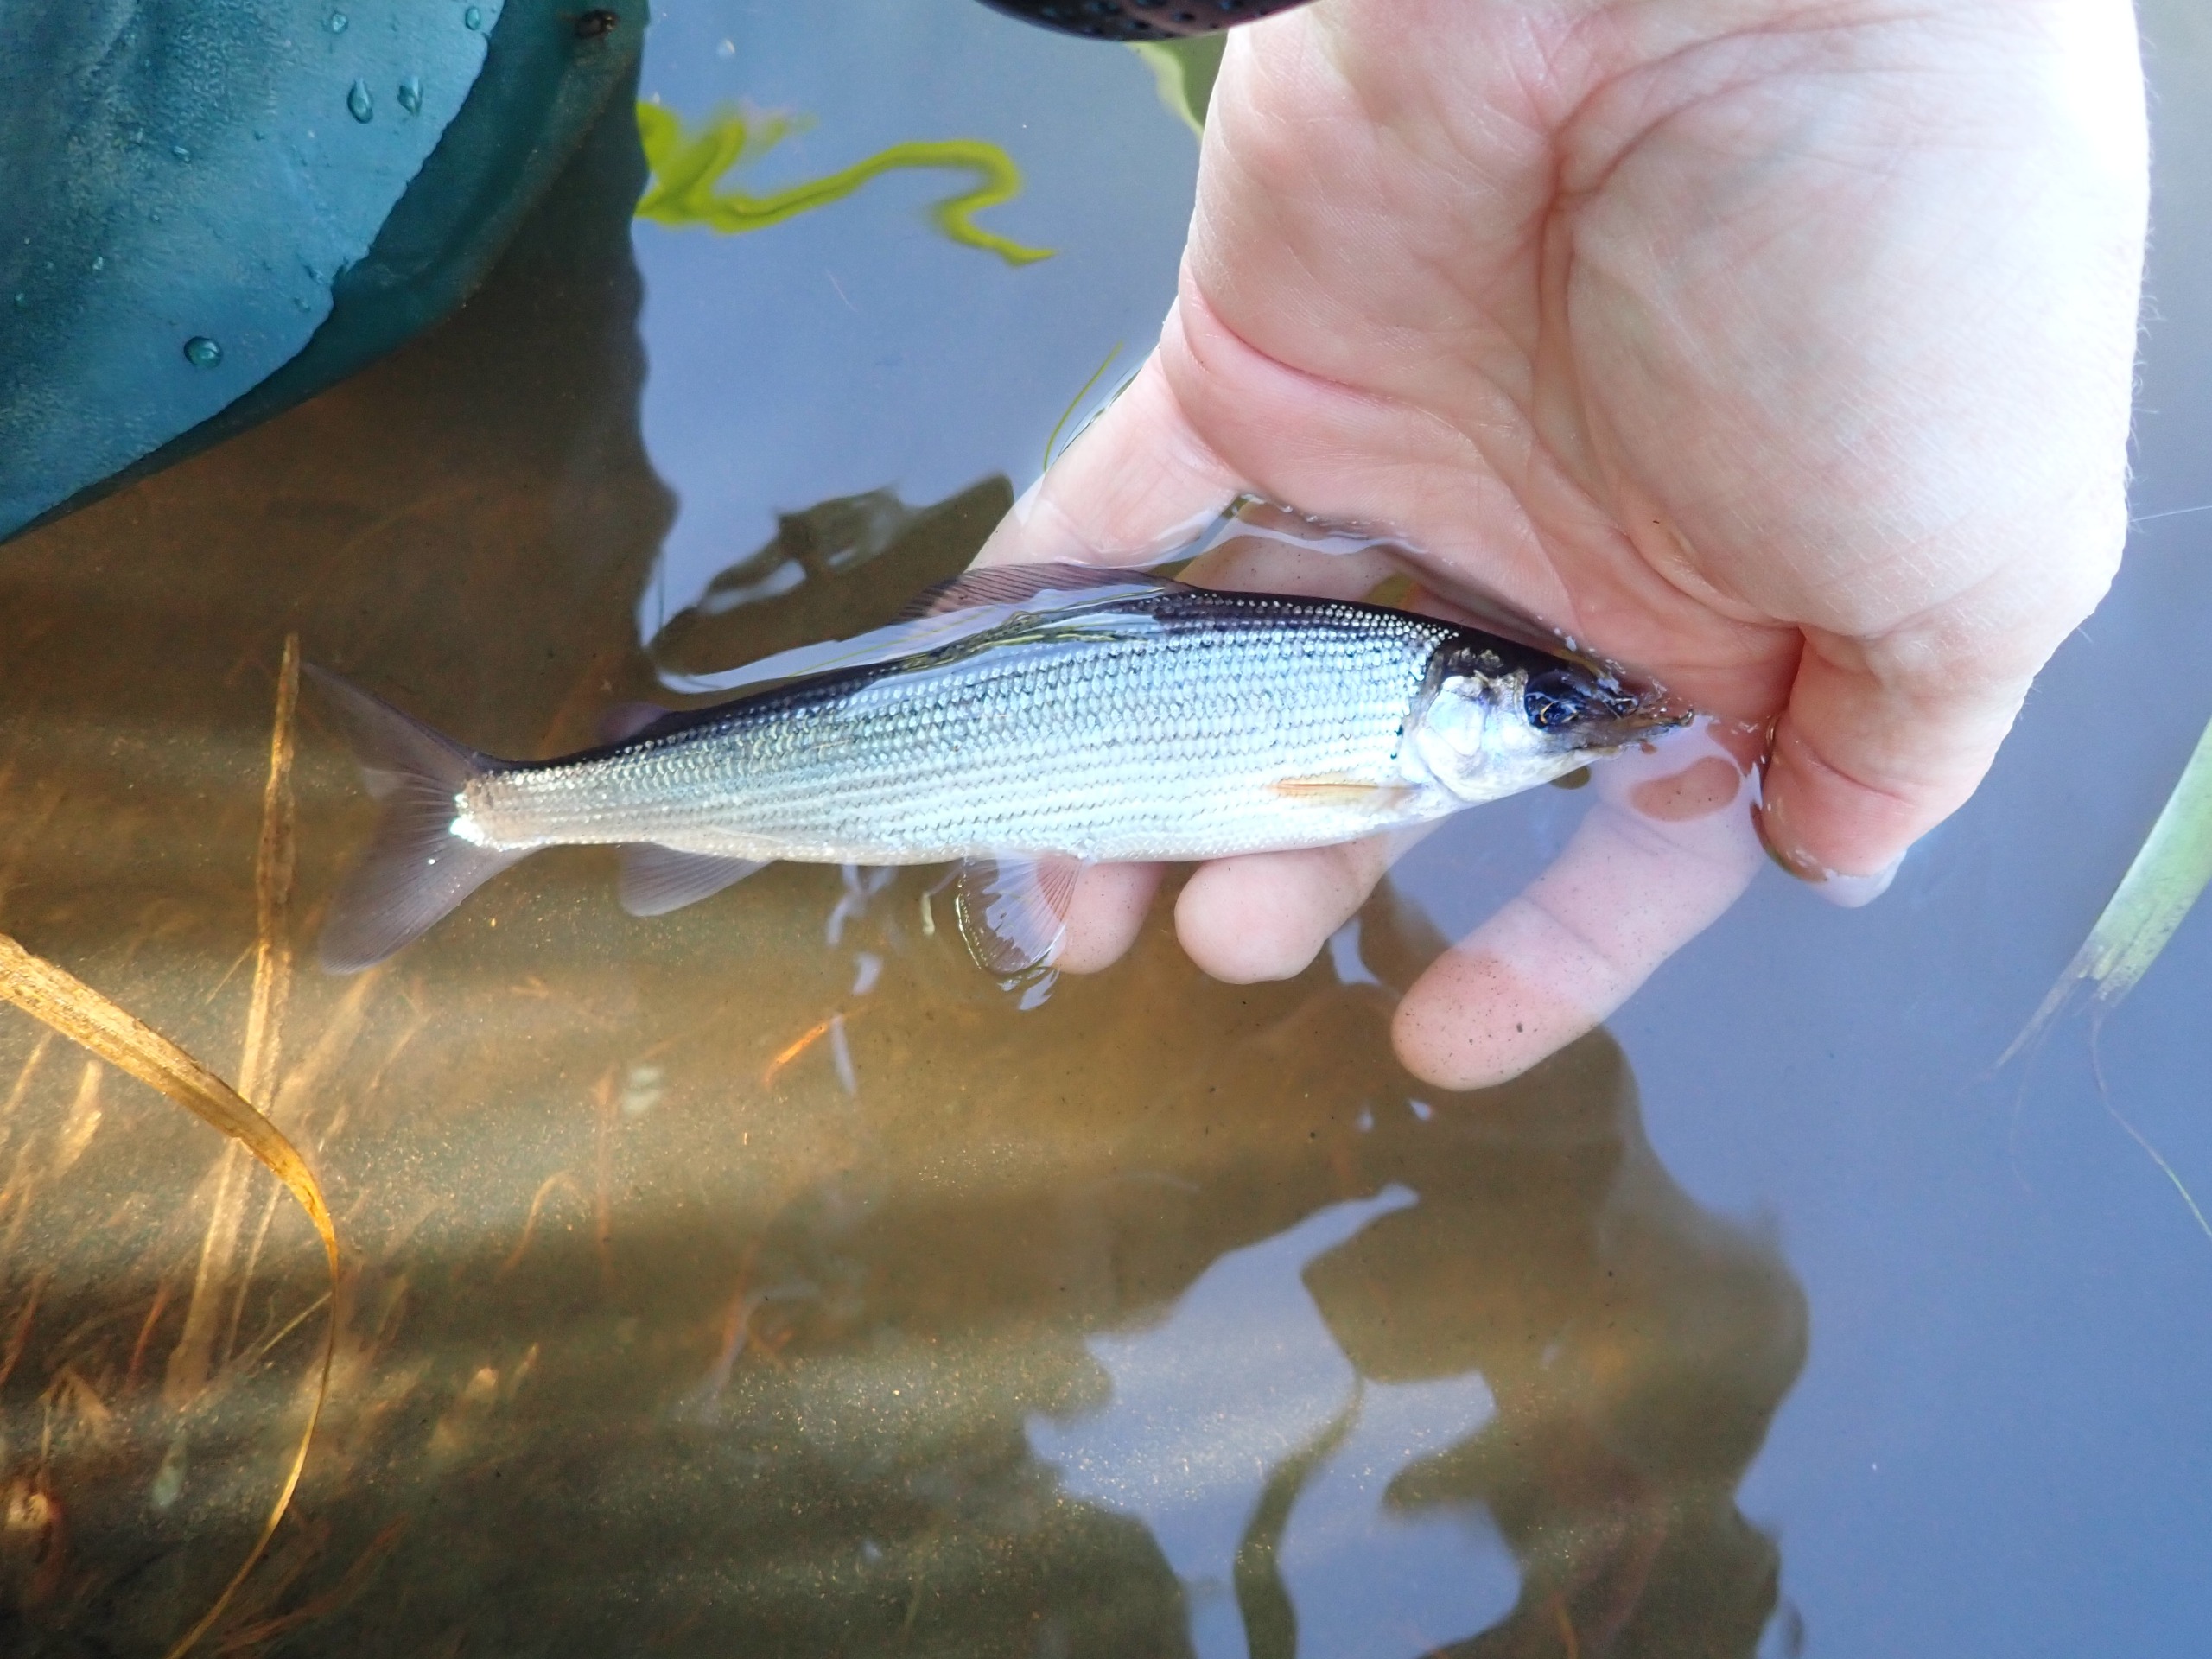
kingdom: Animalia
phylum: Chordata
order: Salmoniformes
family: Salmonidae
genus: Thymallus
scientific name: Thymallus thymallus
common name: Stalling
